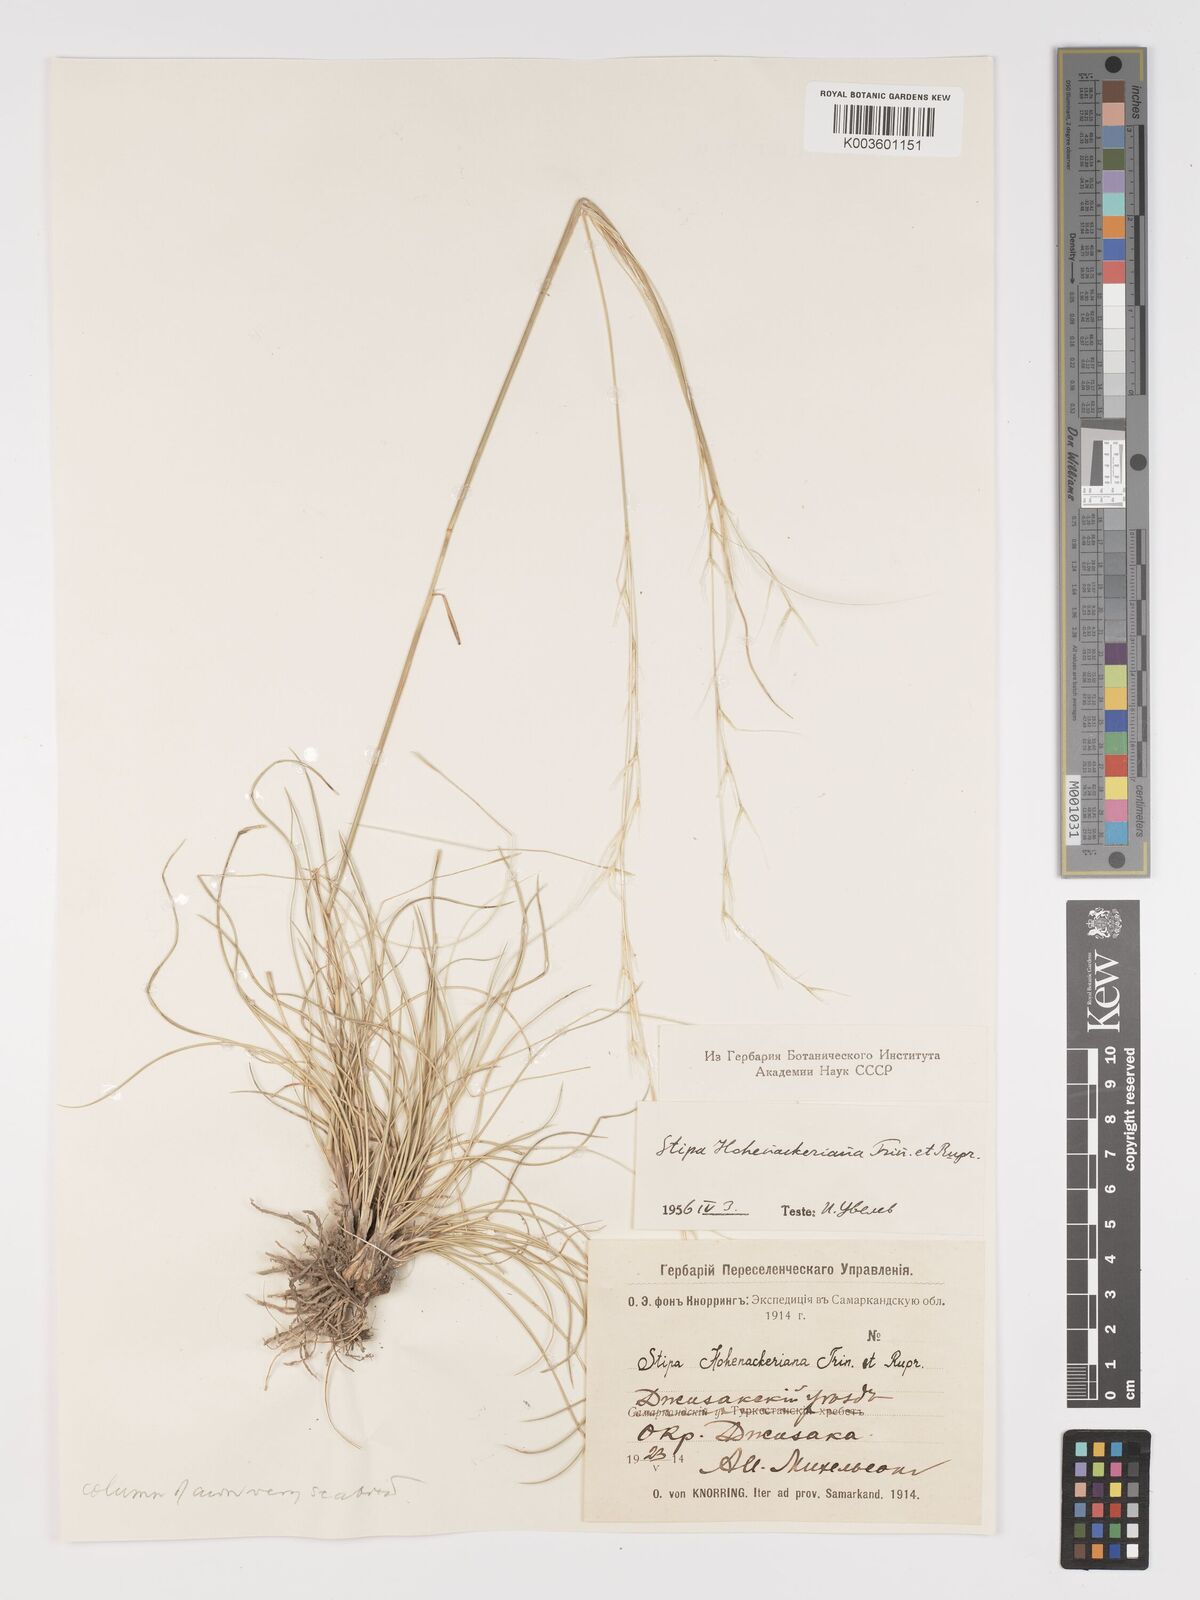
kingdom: Plantae
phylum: Tracheophyta
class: Liliopsida
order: Poales
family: Poaceae
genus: Stipa
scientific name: Stipa hohenackeriana
